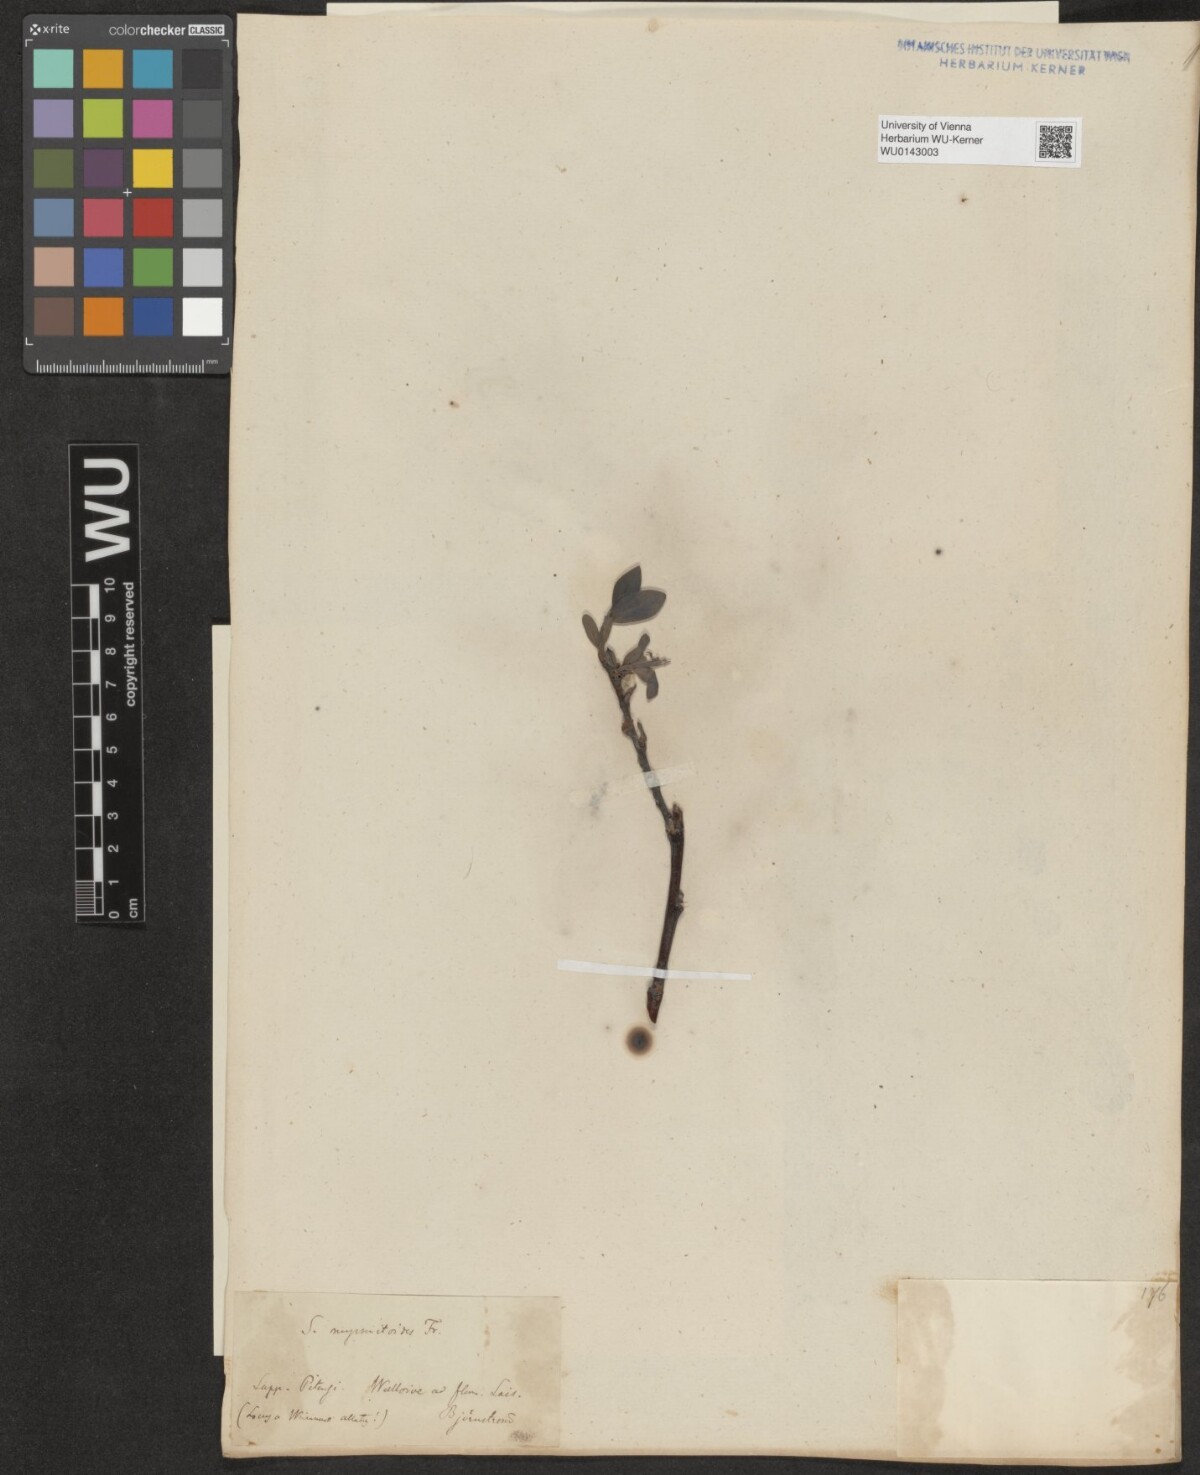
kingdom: Plantae
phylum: Tracheophyta
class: Magnoliopsida
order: Malpighiales
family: Salicaceae
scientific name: Salicaceae
